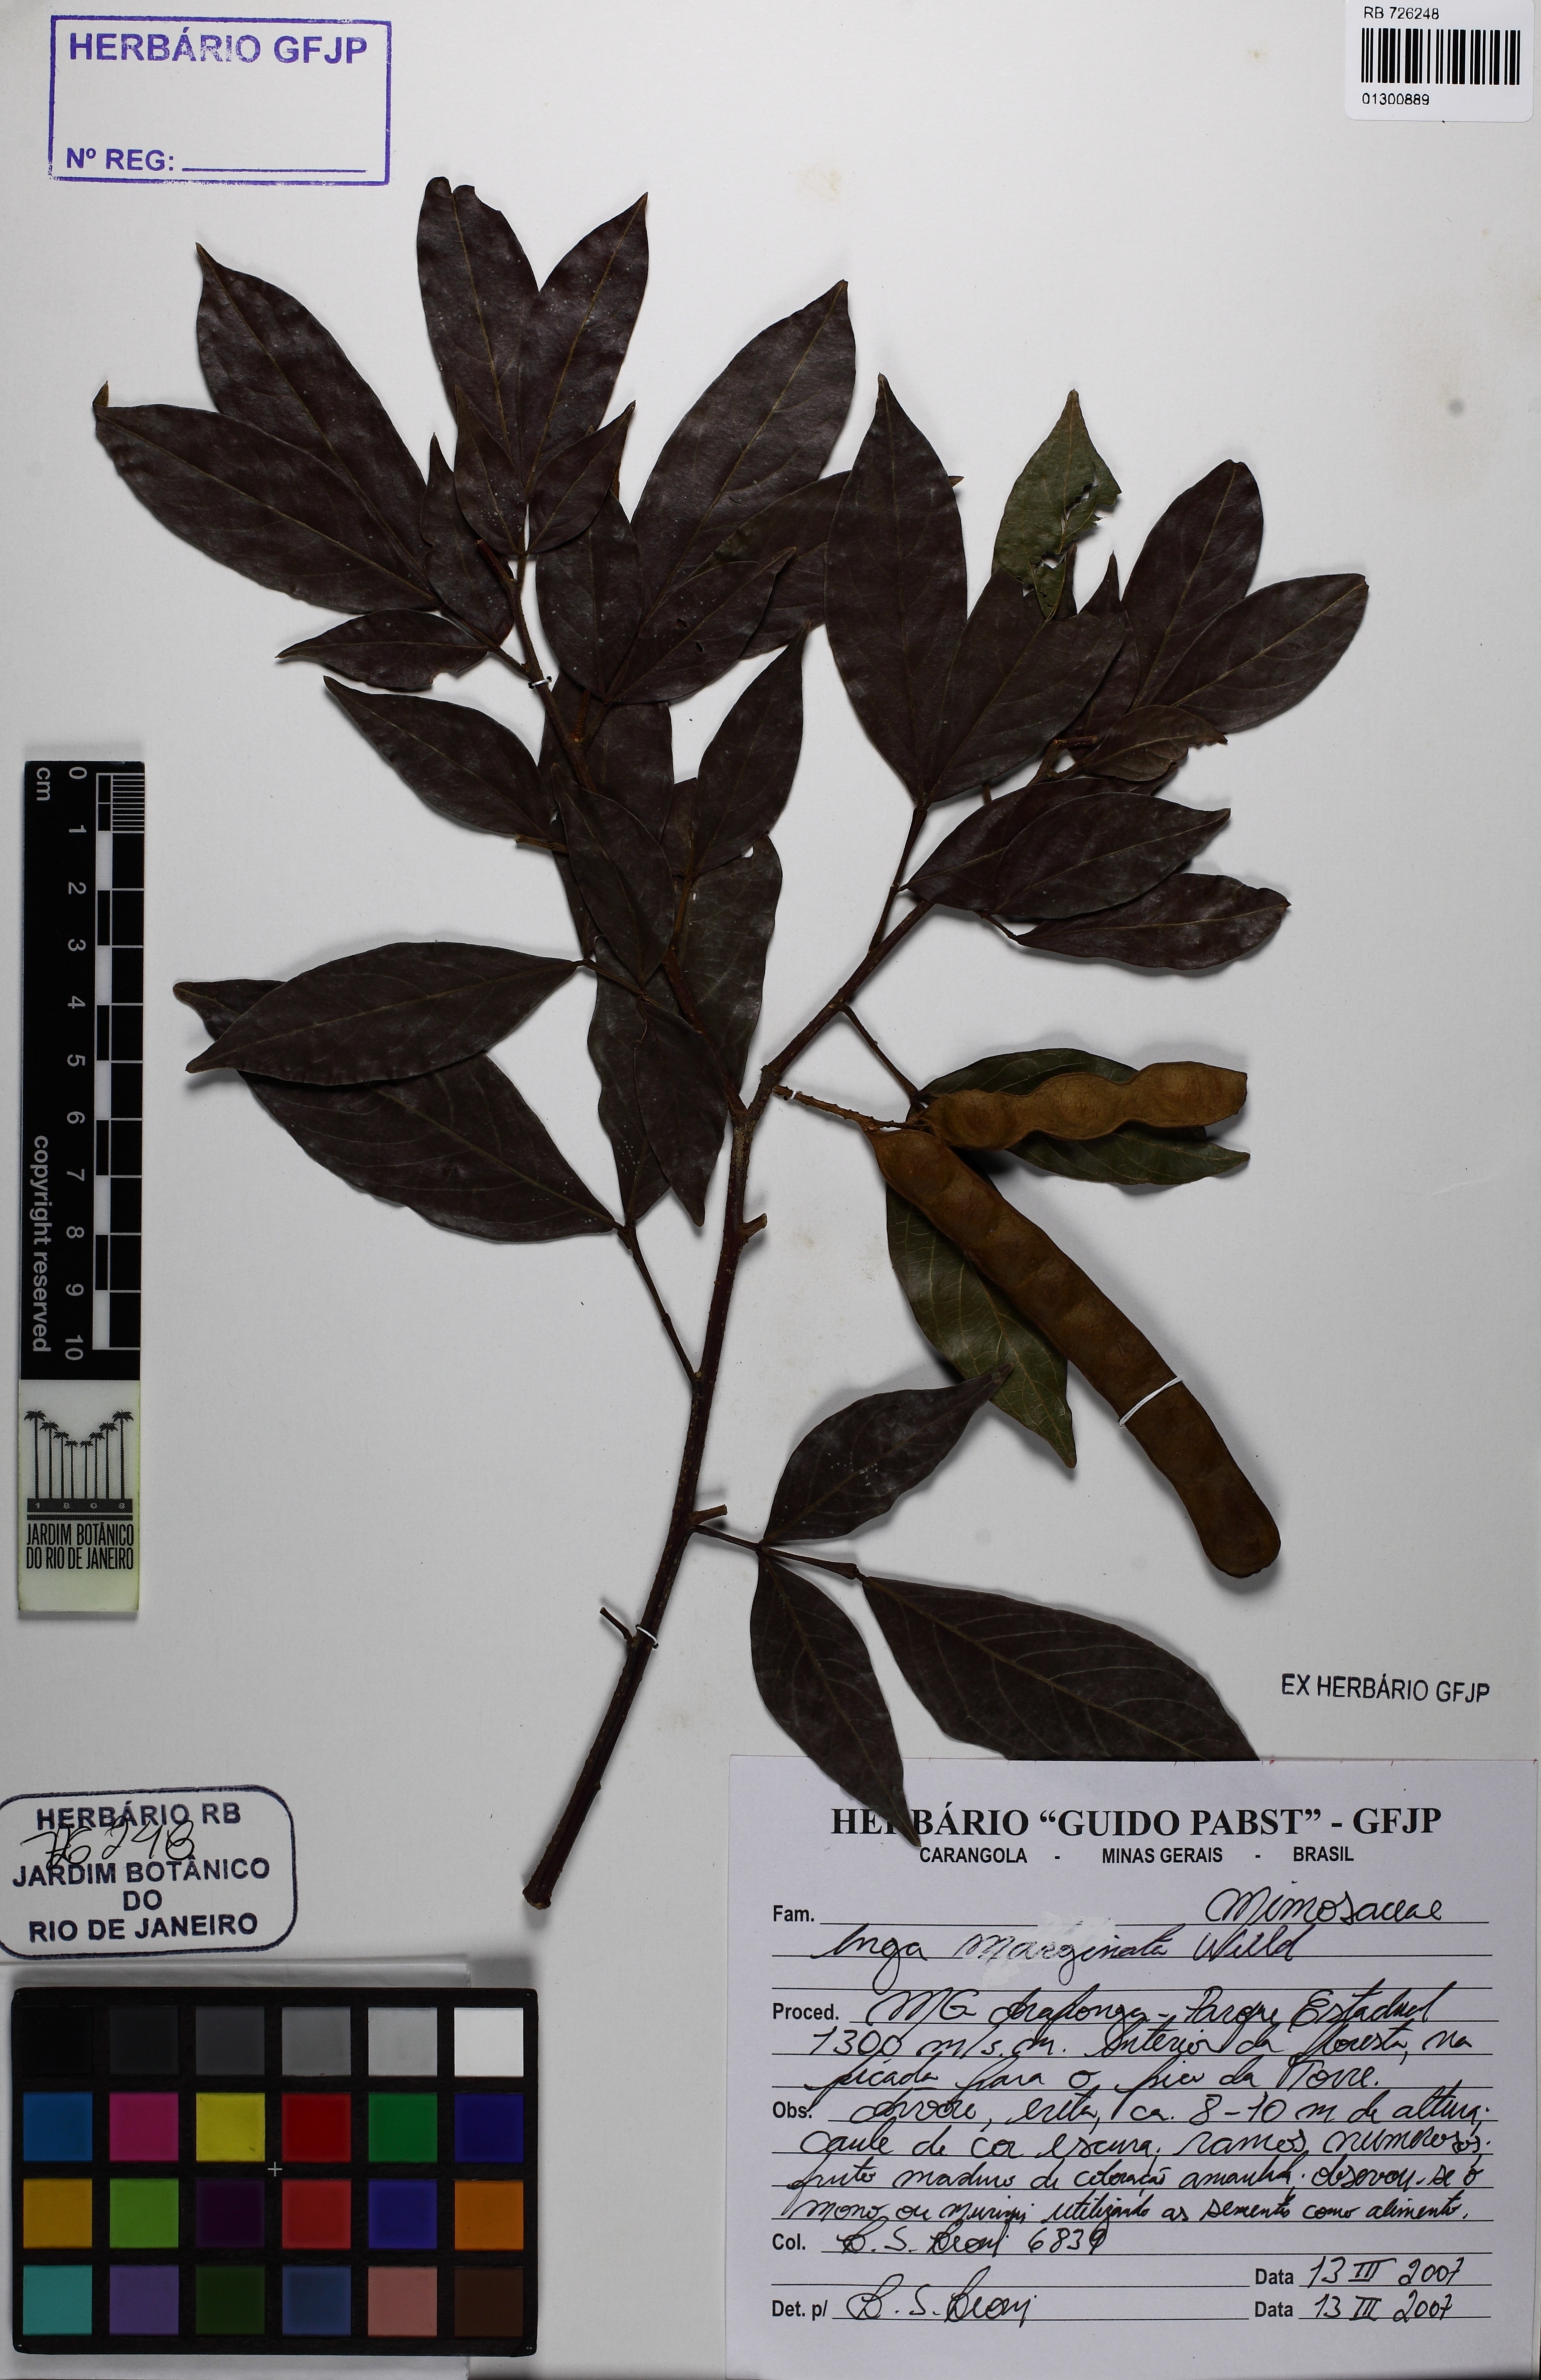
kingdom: Plantae
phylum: Tracheophyta
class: Magnoliopsida
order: Fabales
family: Fabaceae
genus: Inga
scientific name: Inga marginata
